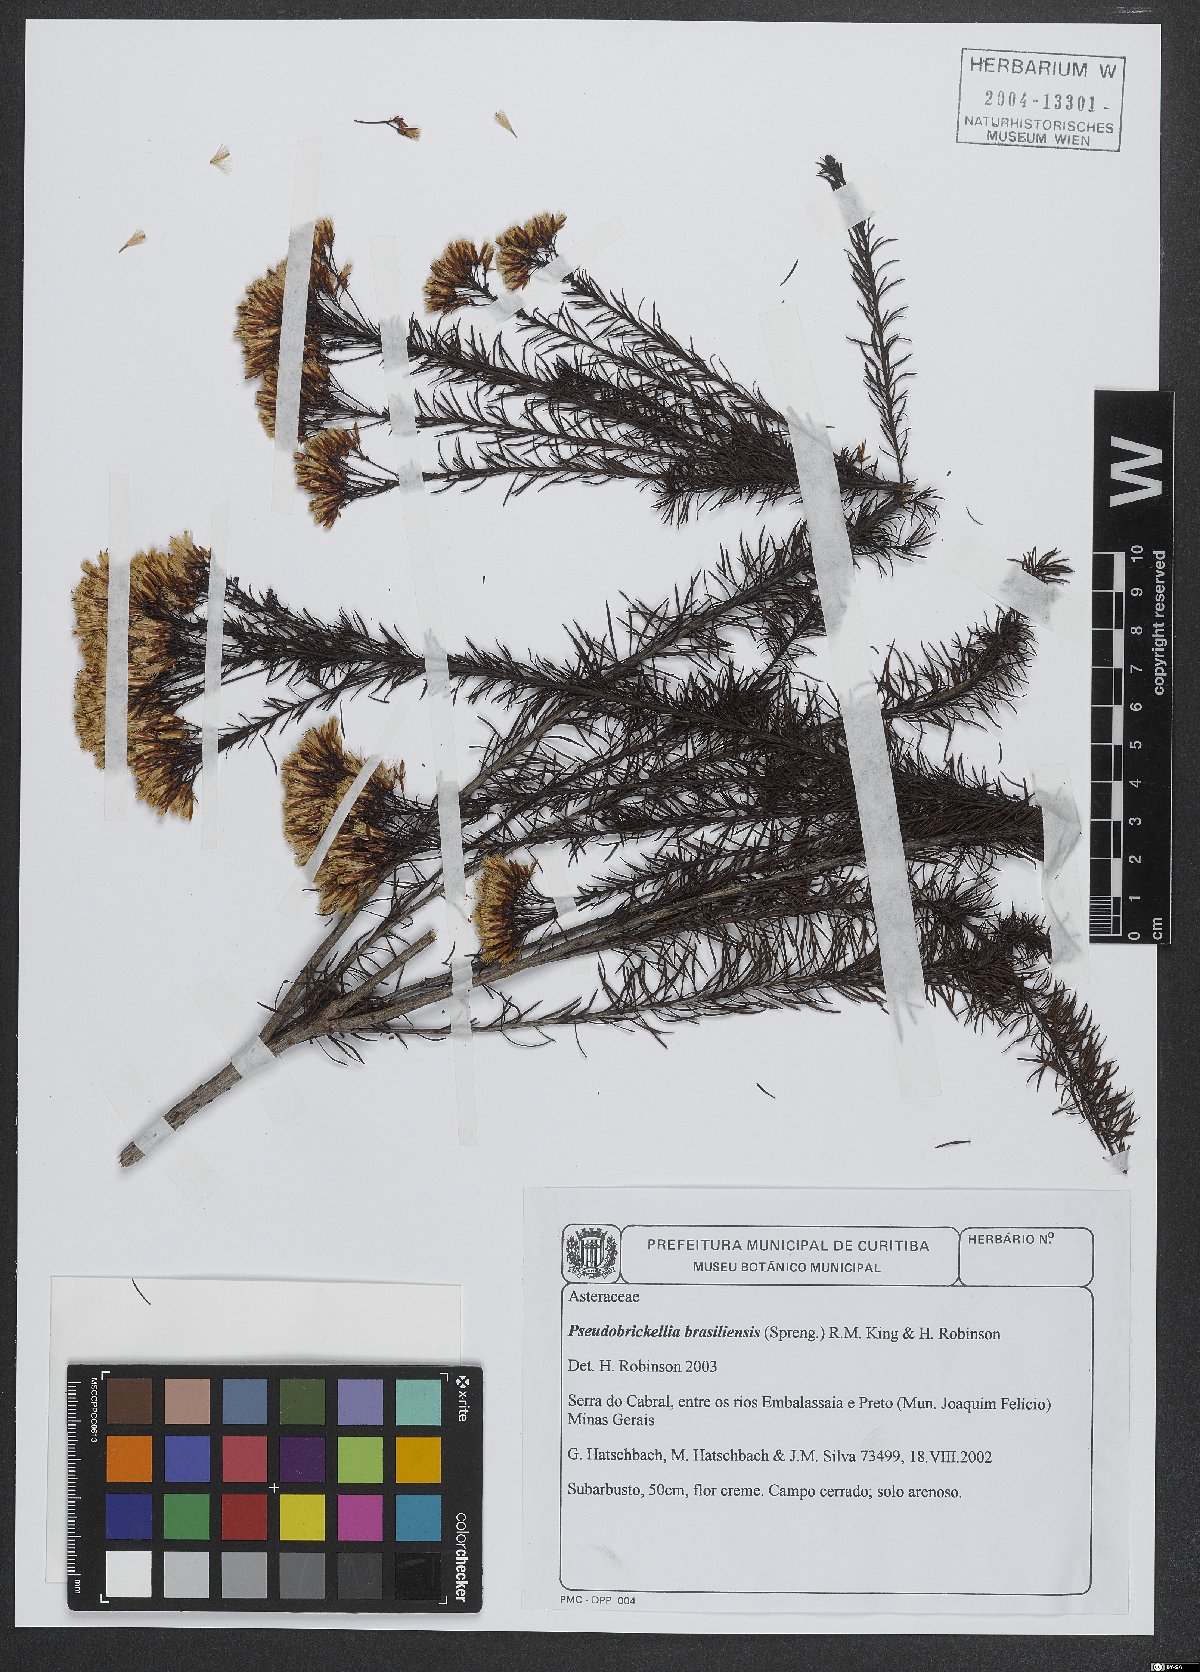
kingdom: Plantae
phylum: Tracheophyta
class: Magnoliopsida
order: Asterales
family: Asteraceae
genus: Pseudobrickellia
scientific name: Pseudobrickellia brasiliensis
